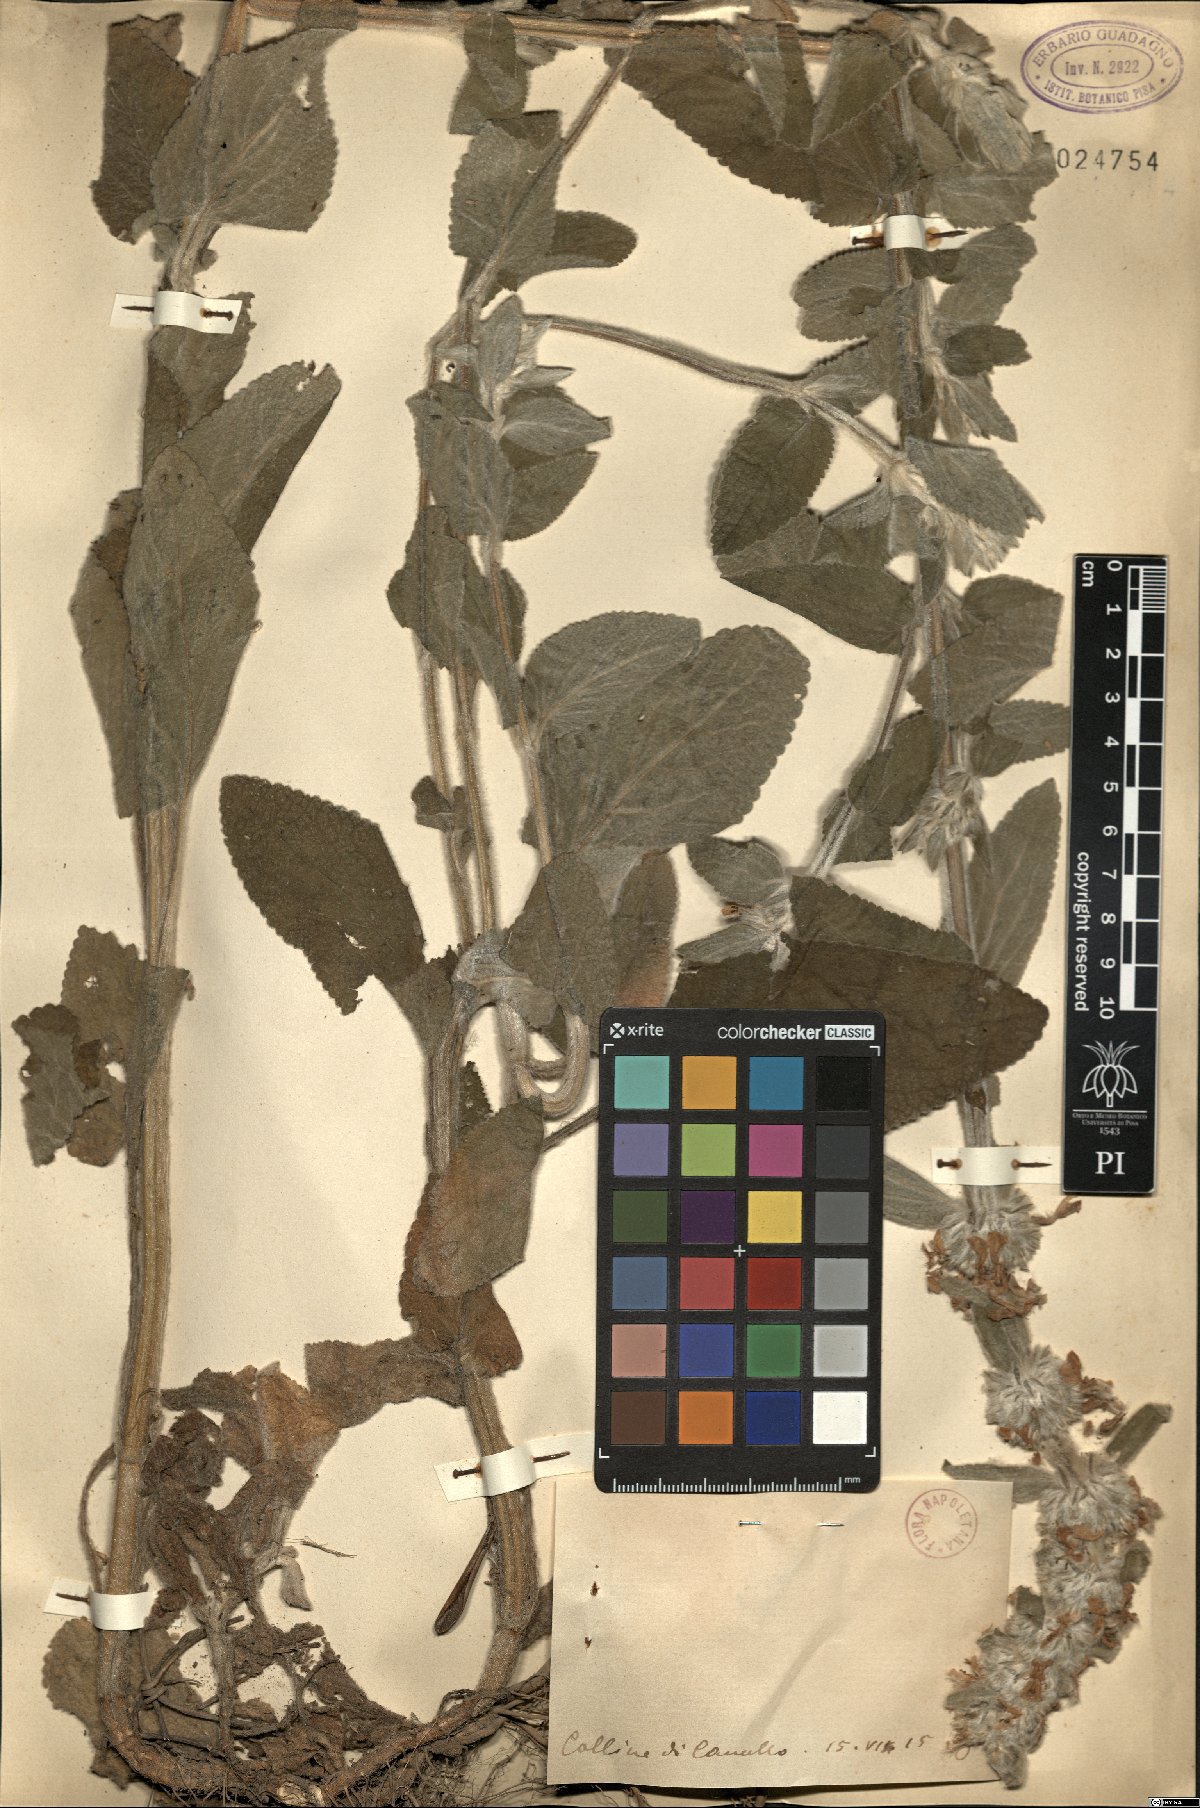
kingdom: Plantae
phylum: Tracheophyta
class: Magnoliopsida
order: Lamiales
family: Lamiaceae
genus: Stachys
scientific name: Stachys
